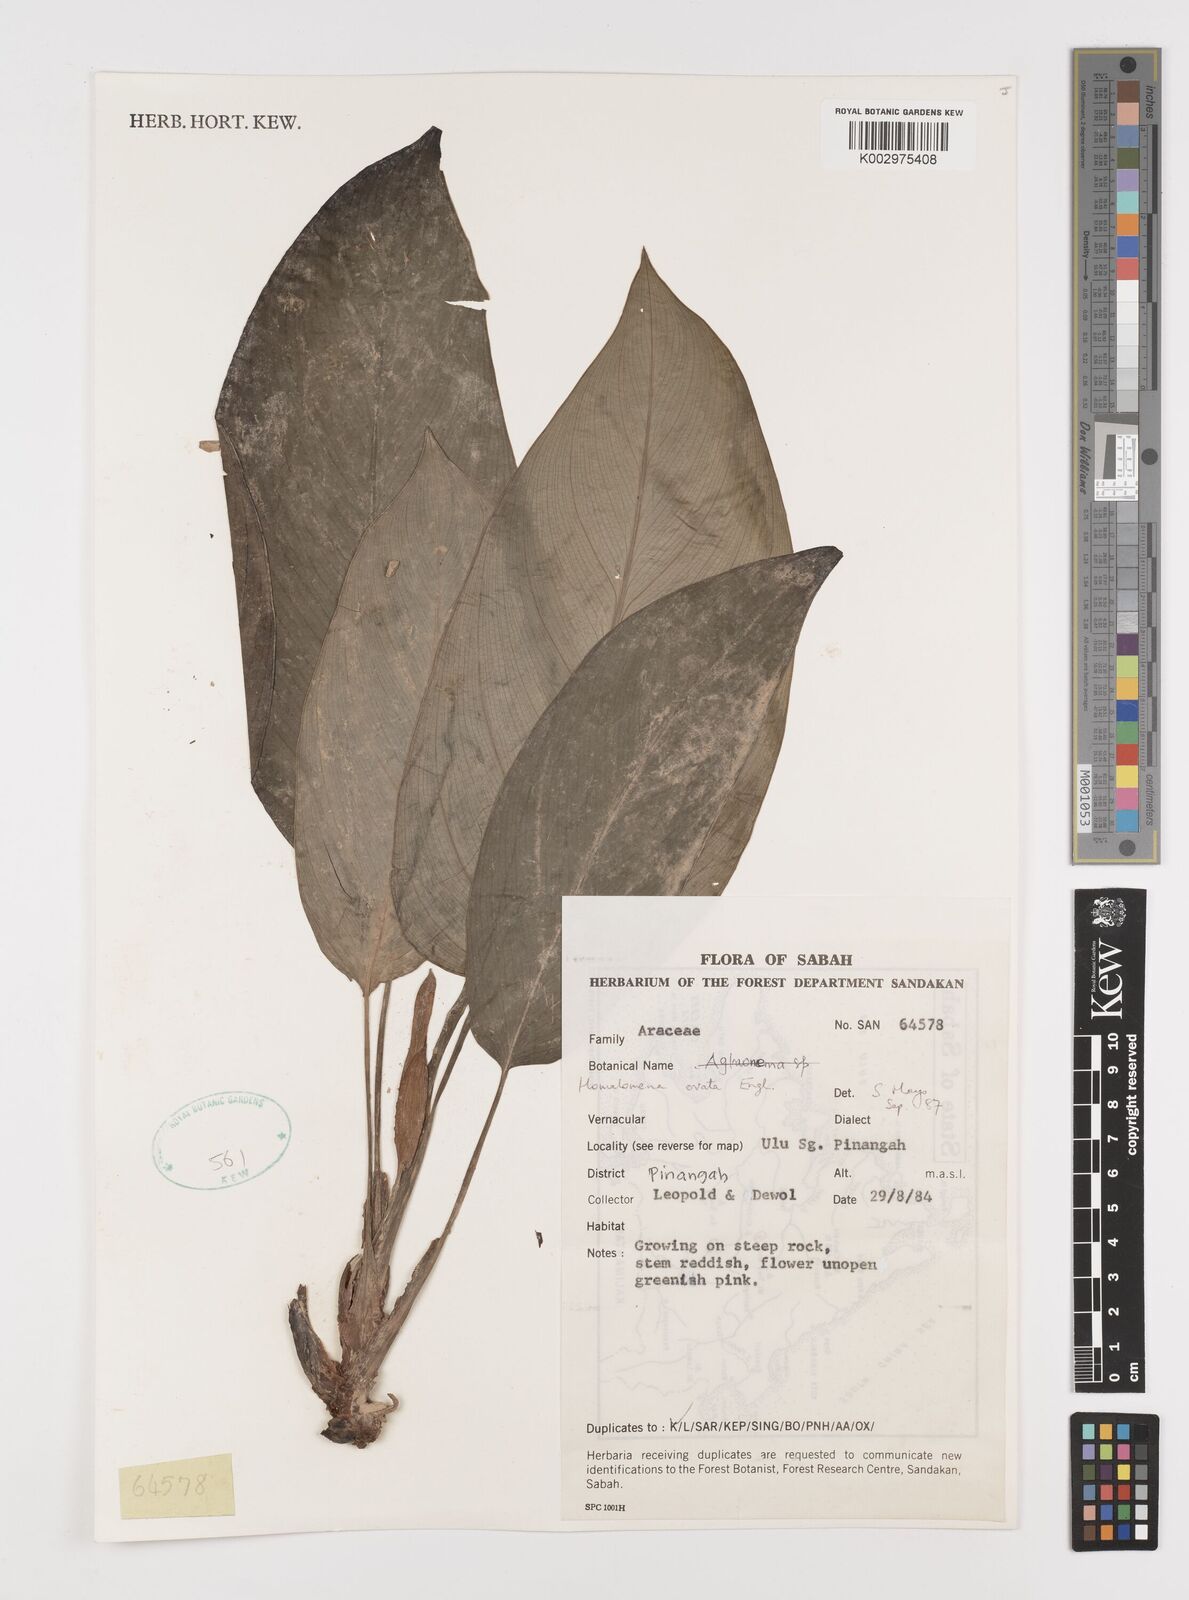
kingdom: Plantae
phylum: Tracheophyta
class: Liliopsida
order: Alismatales
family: Araceae
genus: Homalomena
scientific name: Homalomena ovata
